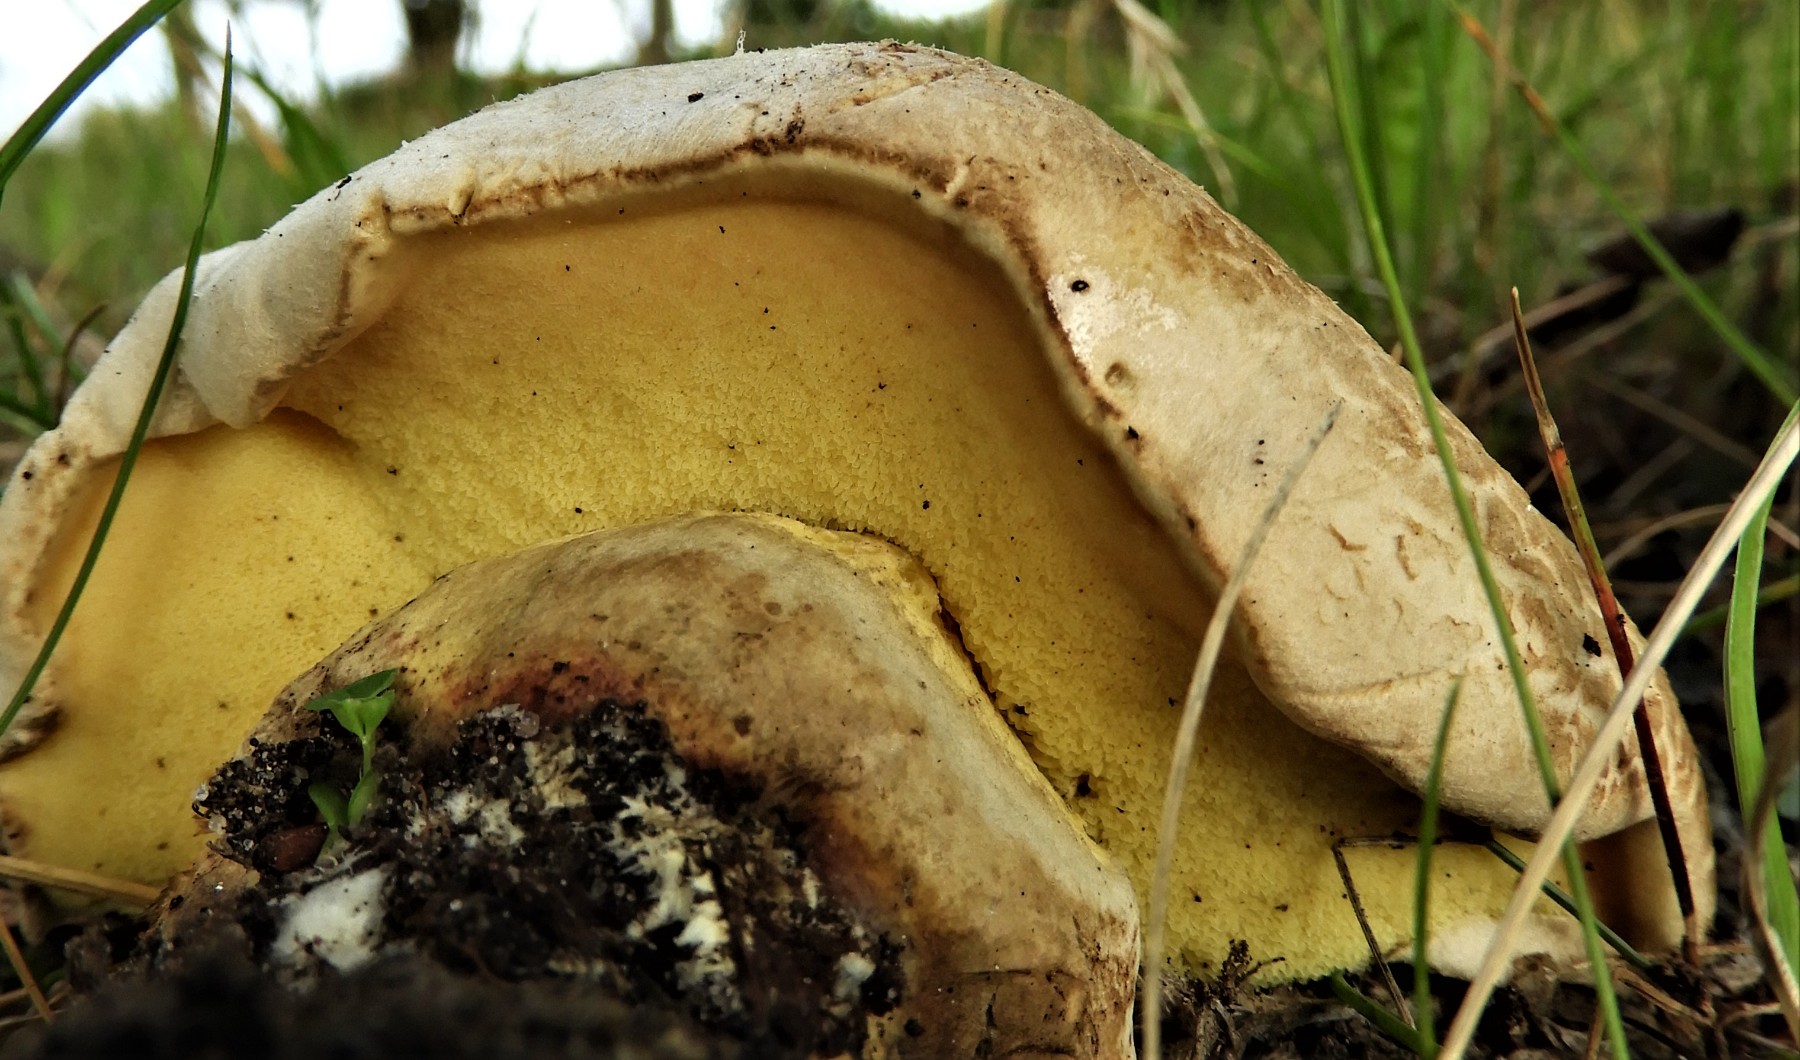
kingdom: Fungi
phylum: Basidiomycota
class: Agaricomycetes
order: Boletales
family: Boletaceae
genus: Caloboletus
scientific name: Caloboletus radicans
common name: rod-rørhat
